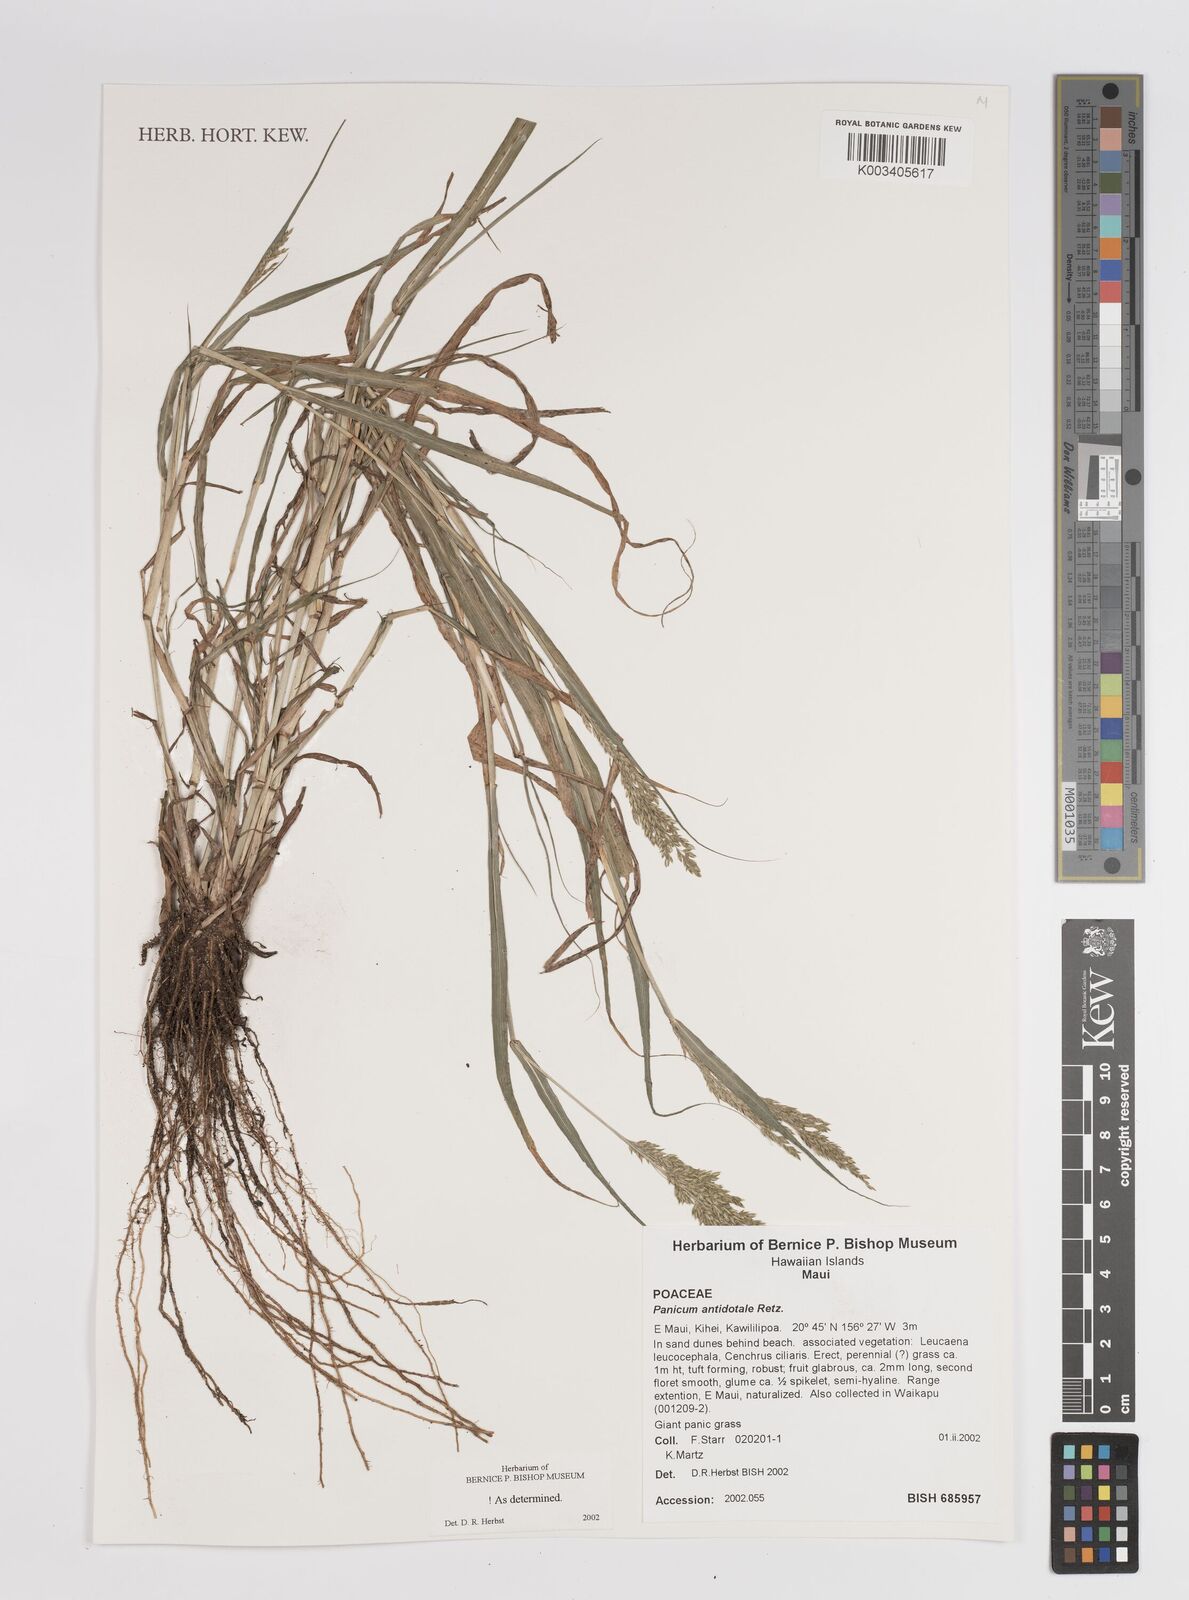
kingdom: Plantae
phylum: Tracheophyta
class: Liliopsida
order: Poales
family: Poaceae
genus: Panicum
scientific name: Panicum antidotale
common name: Blue panicum
